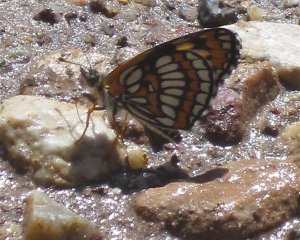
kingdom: Animalia
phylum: Arthropoda
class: Insecta
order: Lepidoptera
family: Nymphalidae
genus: Thessalia
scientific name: Thessalia theona
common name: Theona Checkerspot
